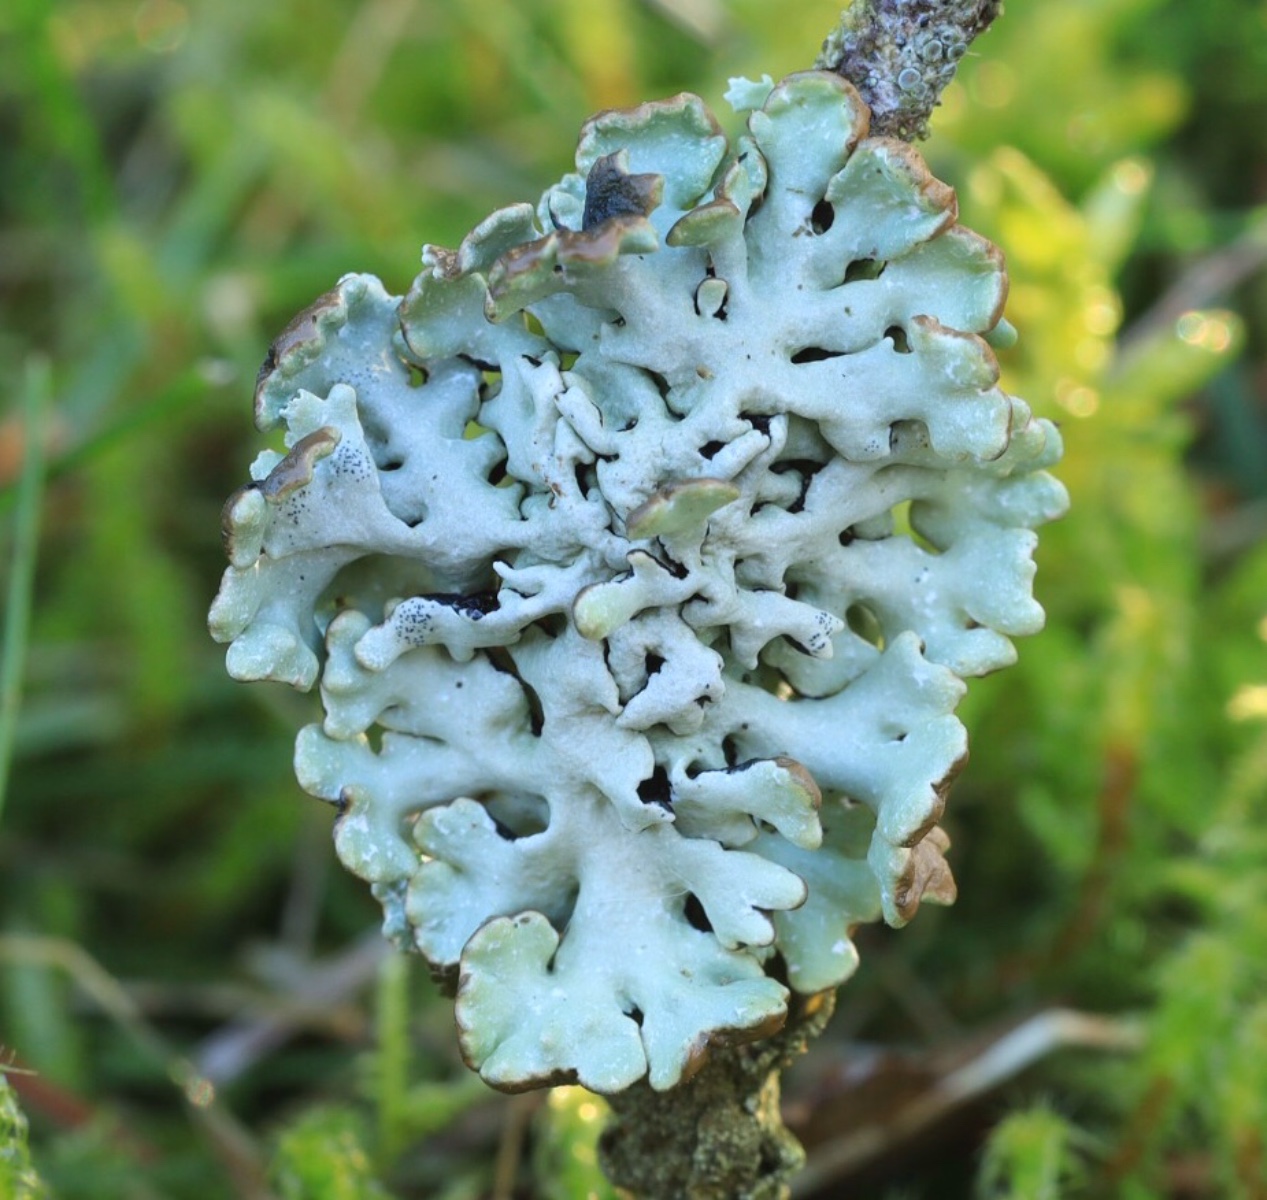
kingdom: Fungi
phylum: Ascomycota
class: Lecanoromycetes
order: Lecanorales
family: Parmeliaceae
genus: Hypogymnia
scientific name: Hypogymnia physodes
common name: almindelig kvistlav
